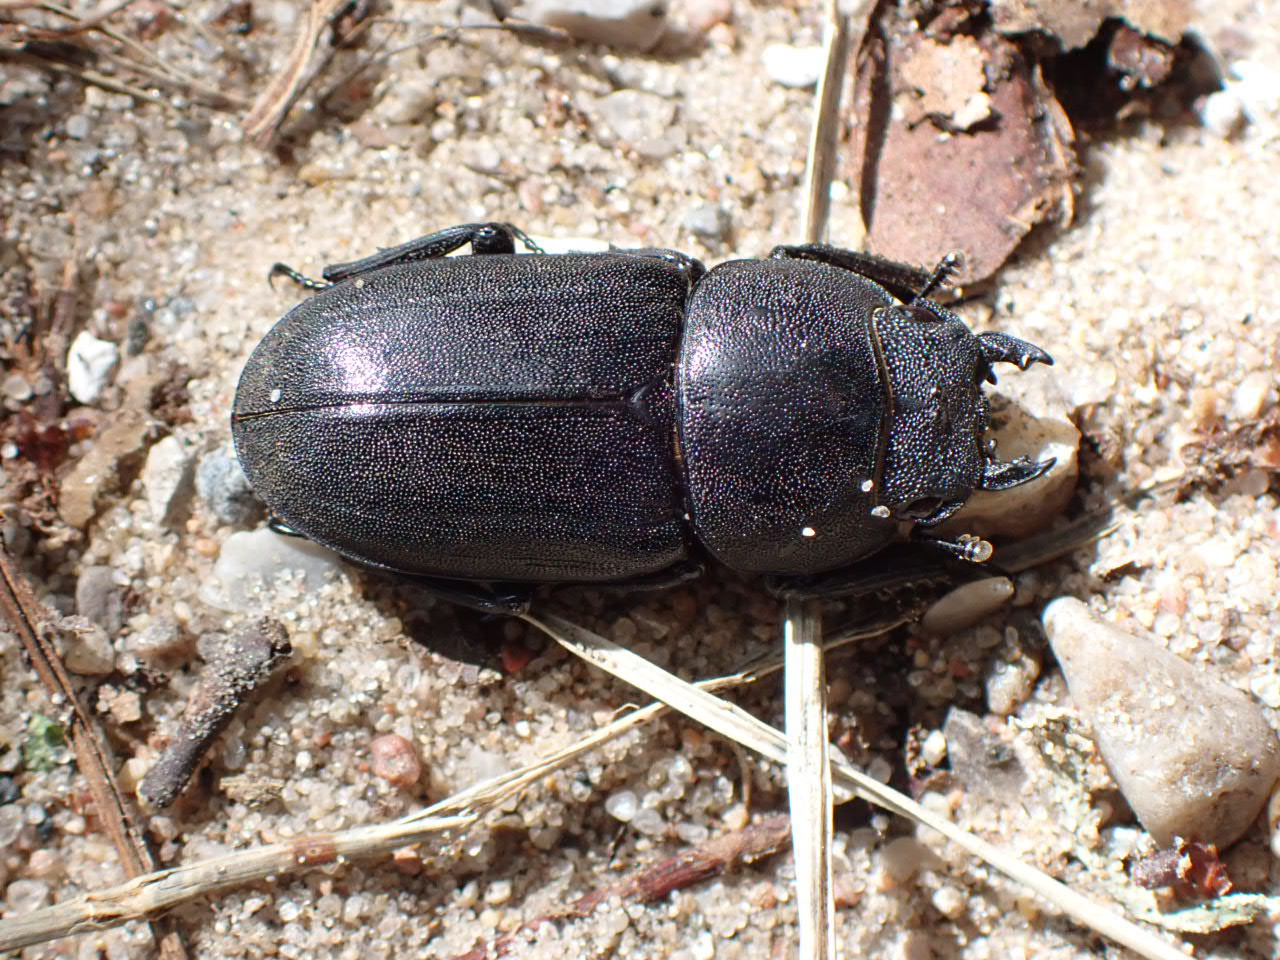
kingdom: Animalia
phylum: Arthropoda
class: Insecta
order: Coleoptera
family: Lucanidae
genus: Dorcus
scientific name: Dorcus parallelipipedus
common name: Bøghjort
